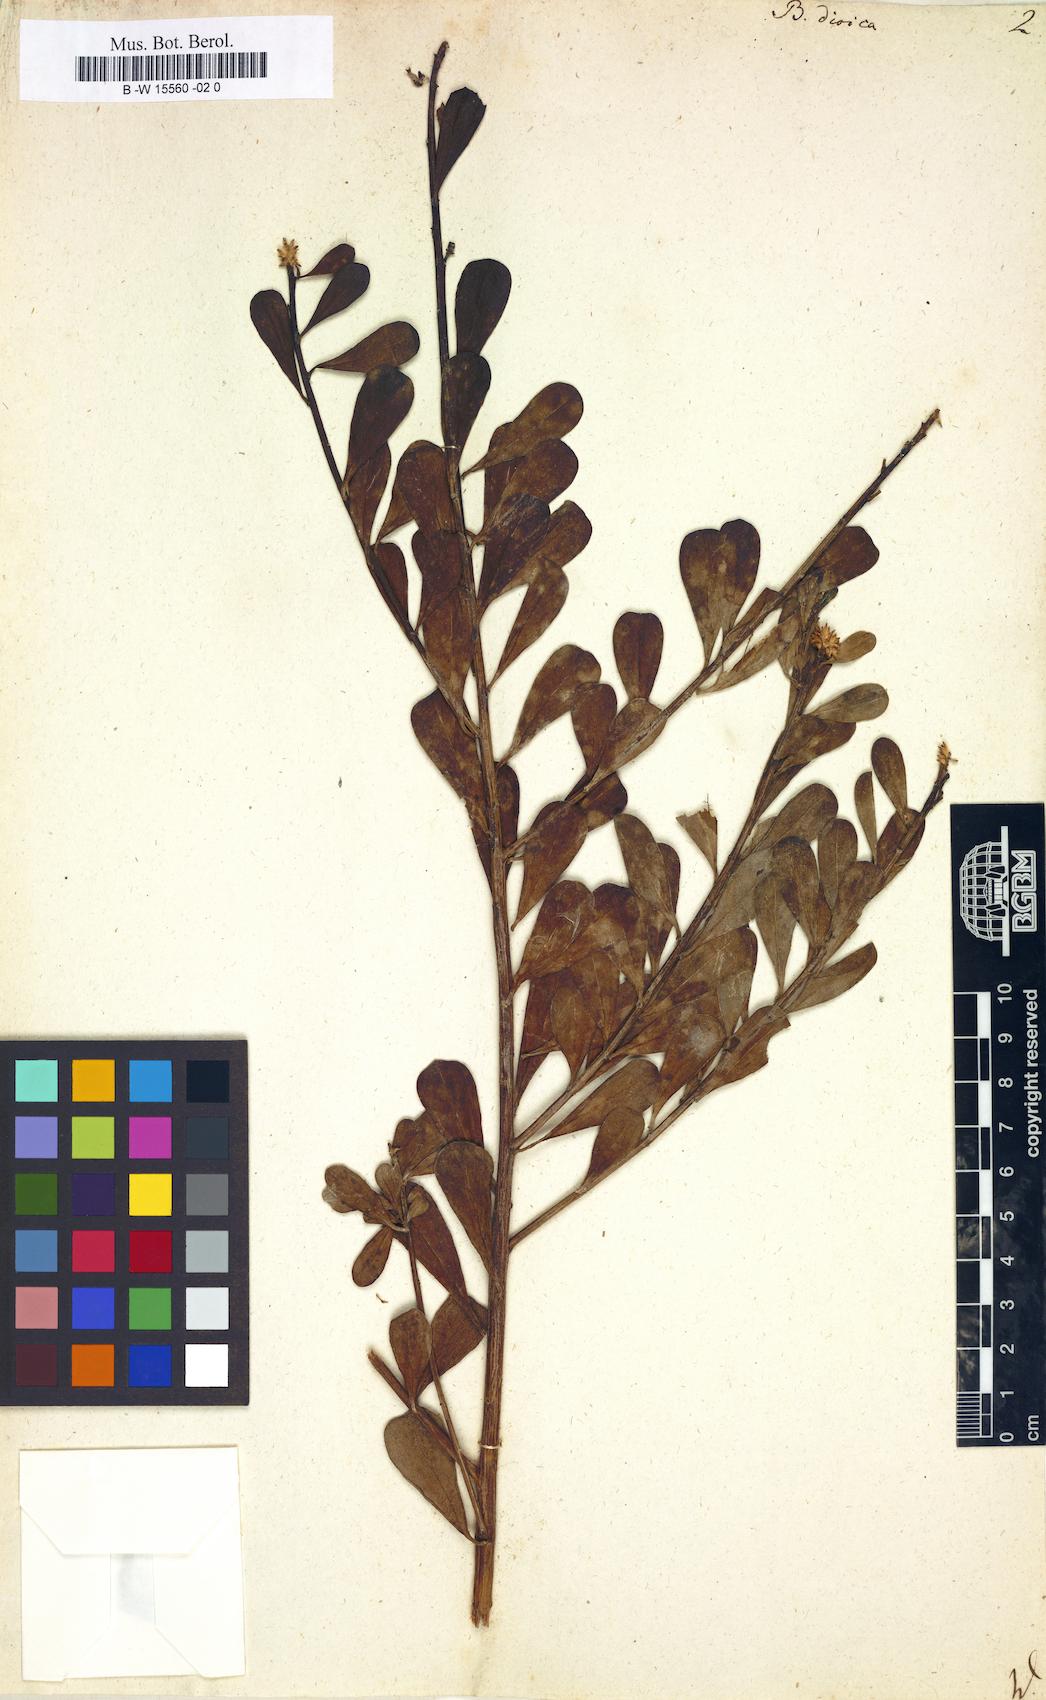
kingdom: Plantae
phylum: Tracheophyta
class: Magnoliopsida
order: Asterales
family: Asteraceae
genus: Baccharis
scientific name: Baccharis dioica
